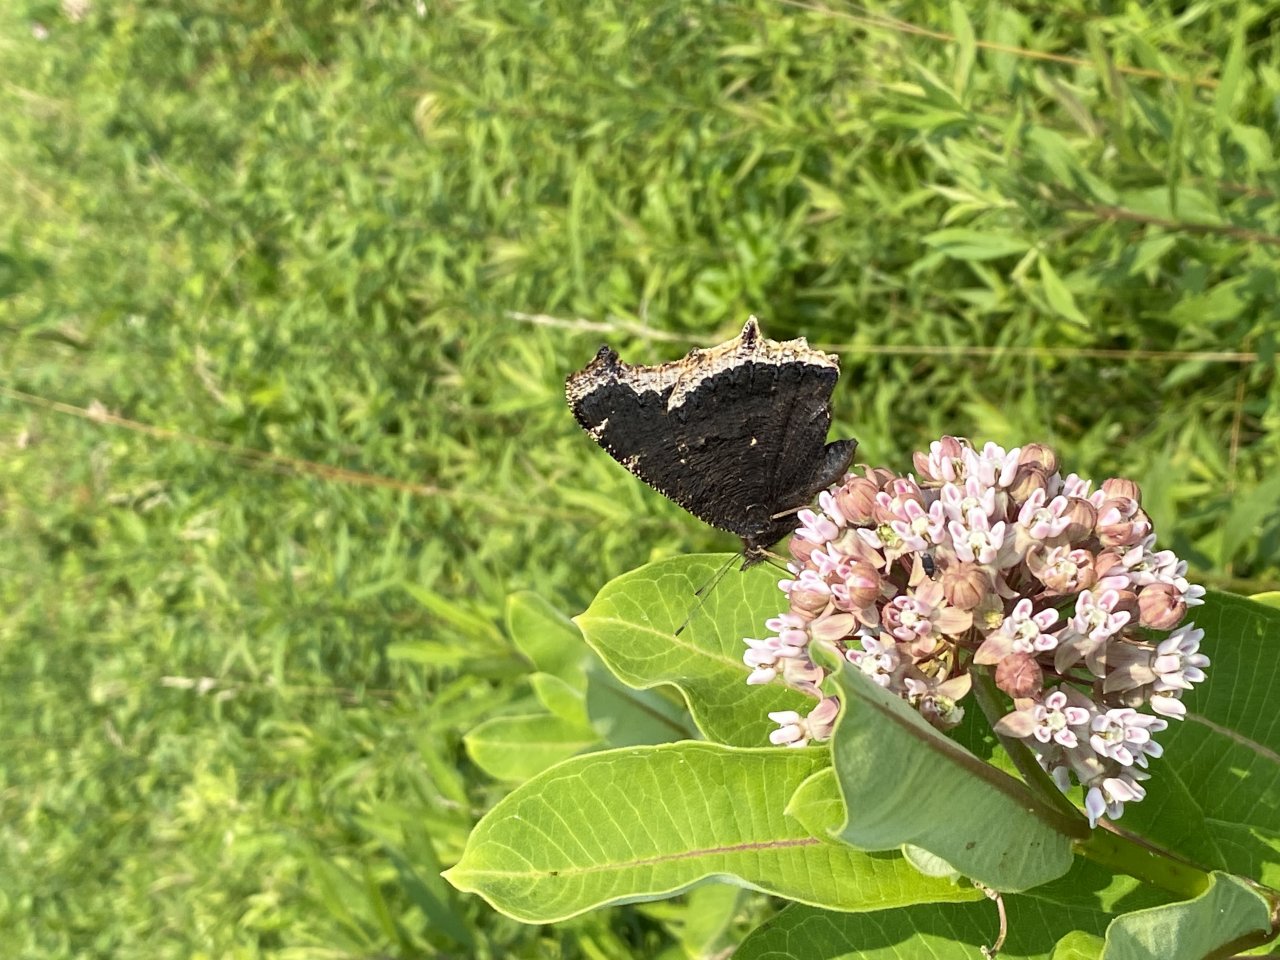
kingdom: Animalia
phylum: Arthropoda
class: Insecta
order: Lepidoptera
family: Nymphalidae
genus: Nymphalis
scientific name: Nymphalis antiopa
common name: Mourning Cloak
